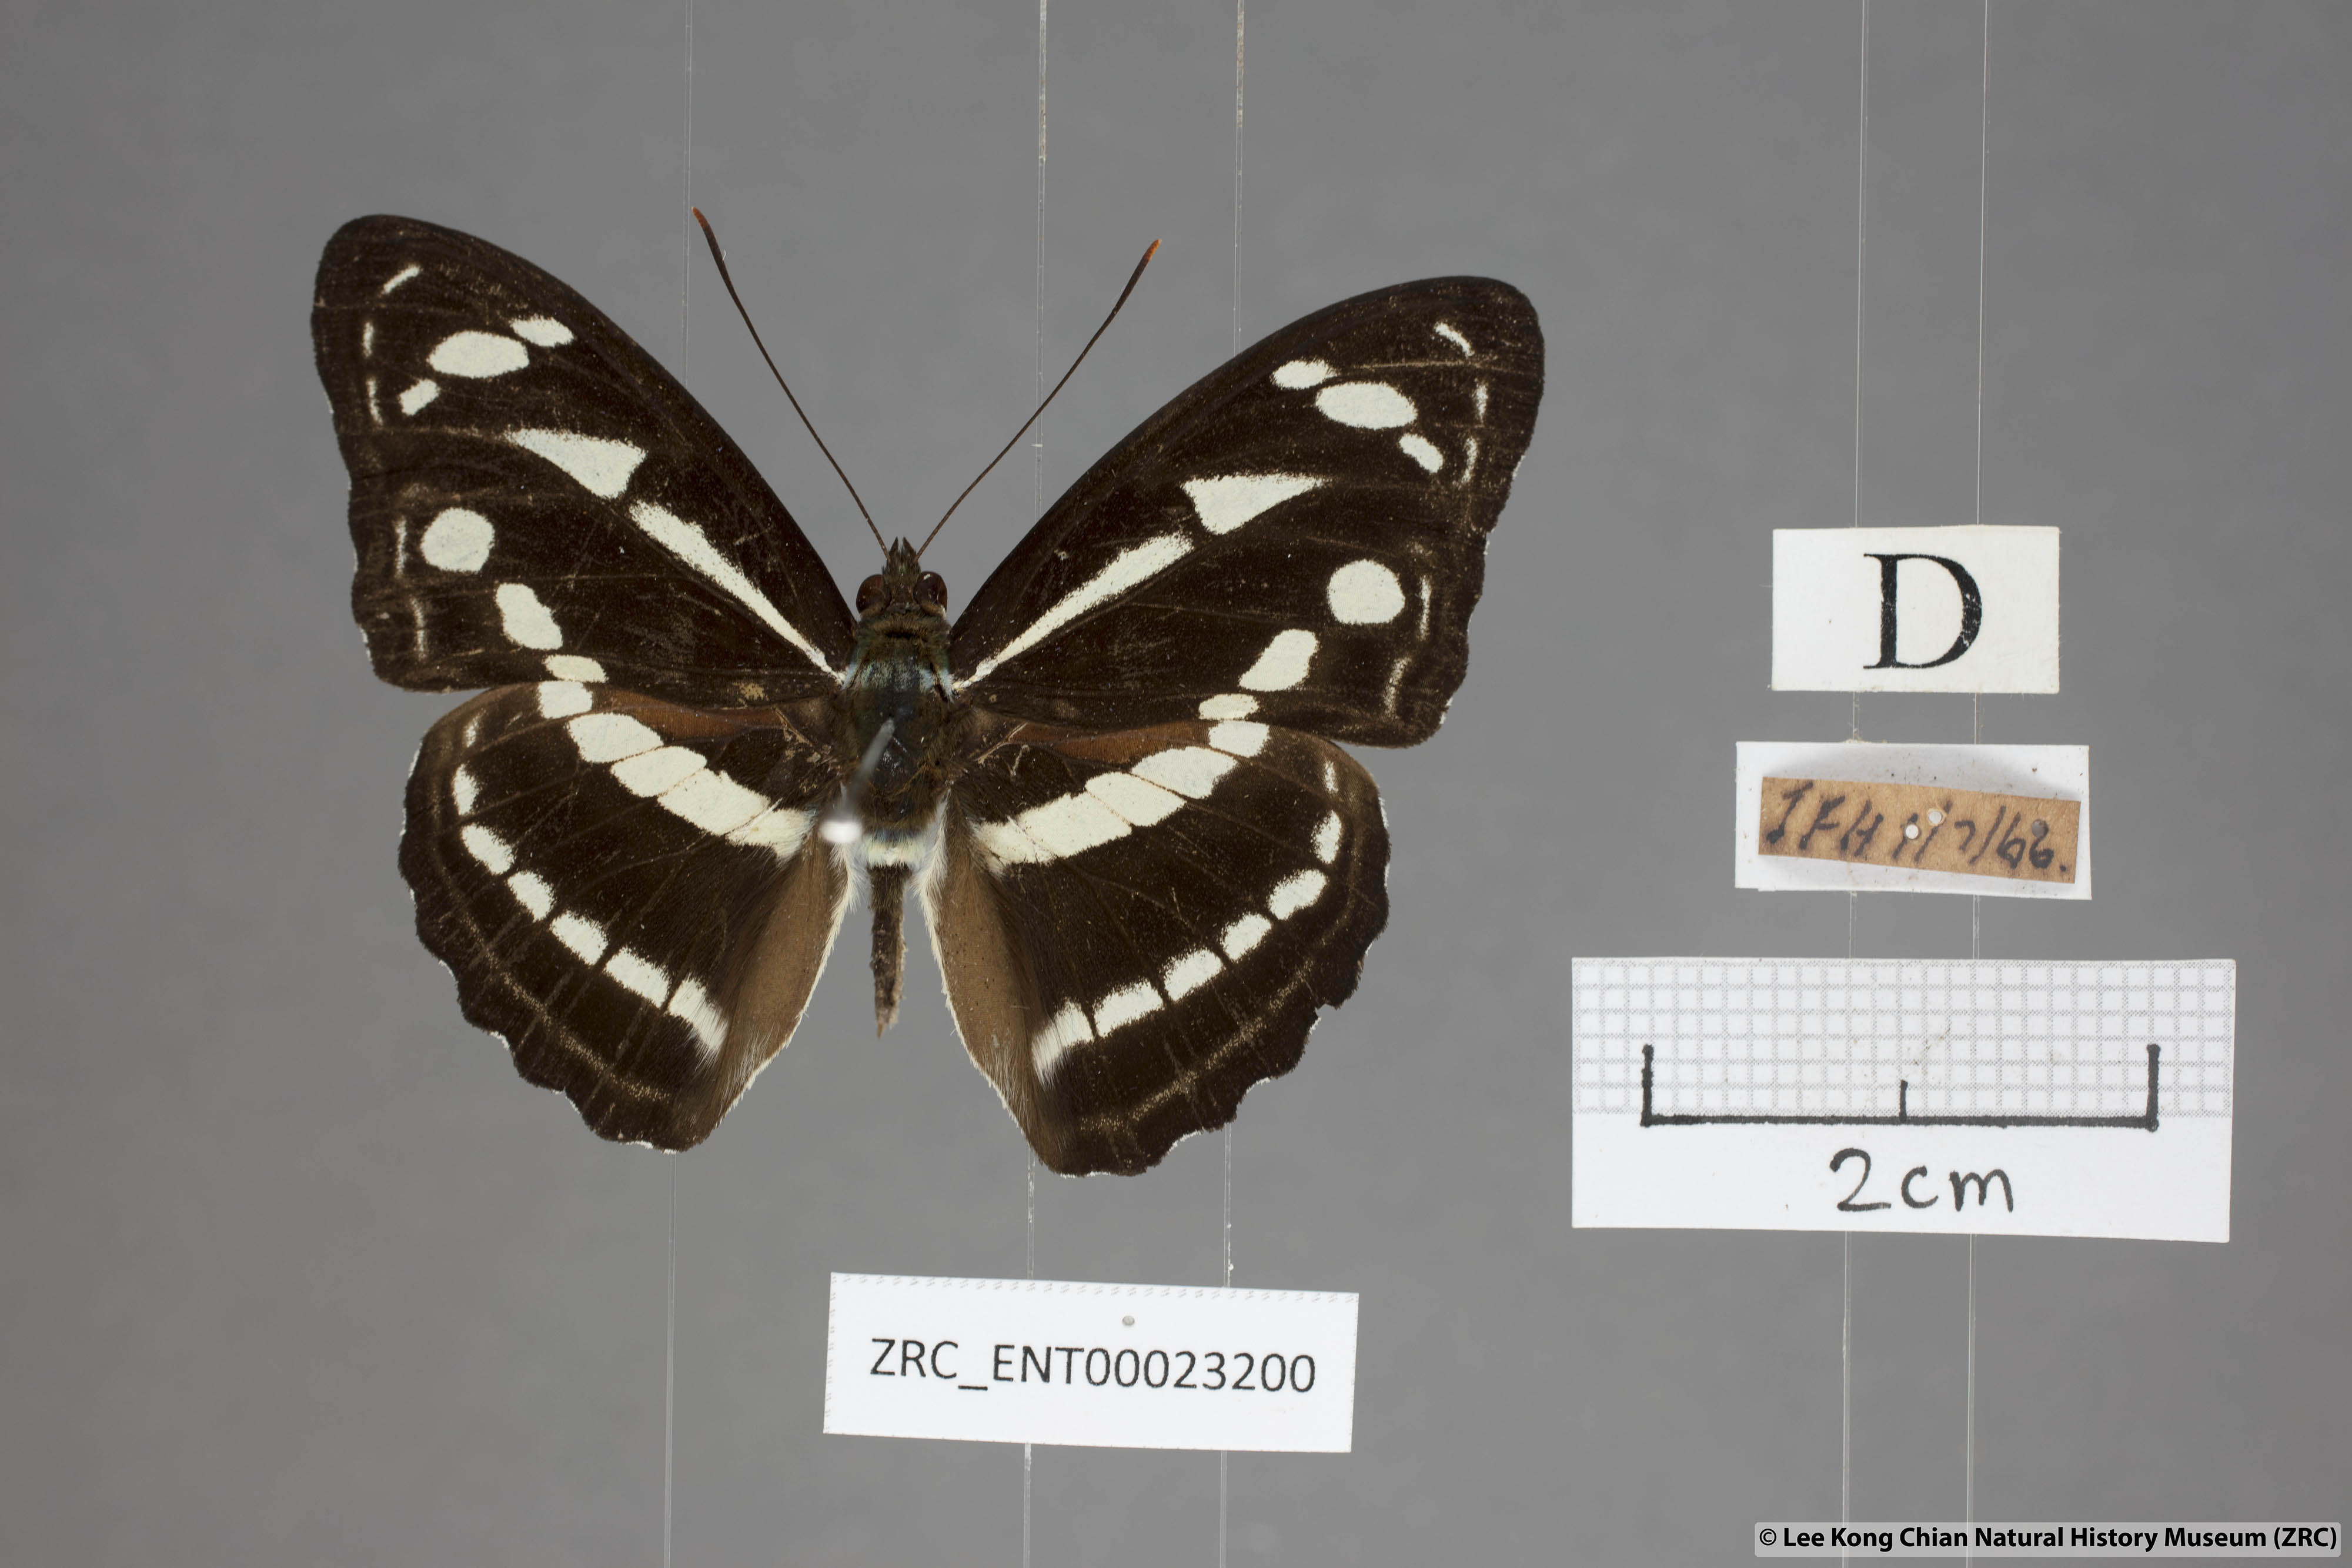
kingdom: Animalia
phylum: Arthropoda
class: Insecta
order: Lepidoptera
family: Nymphalidae
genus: Parathyma
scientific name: Parathyma kanwa
